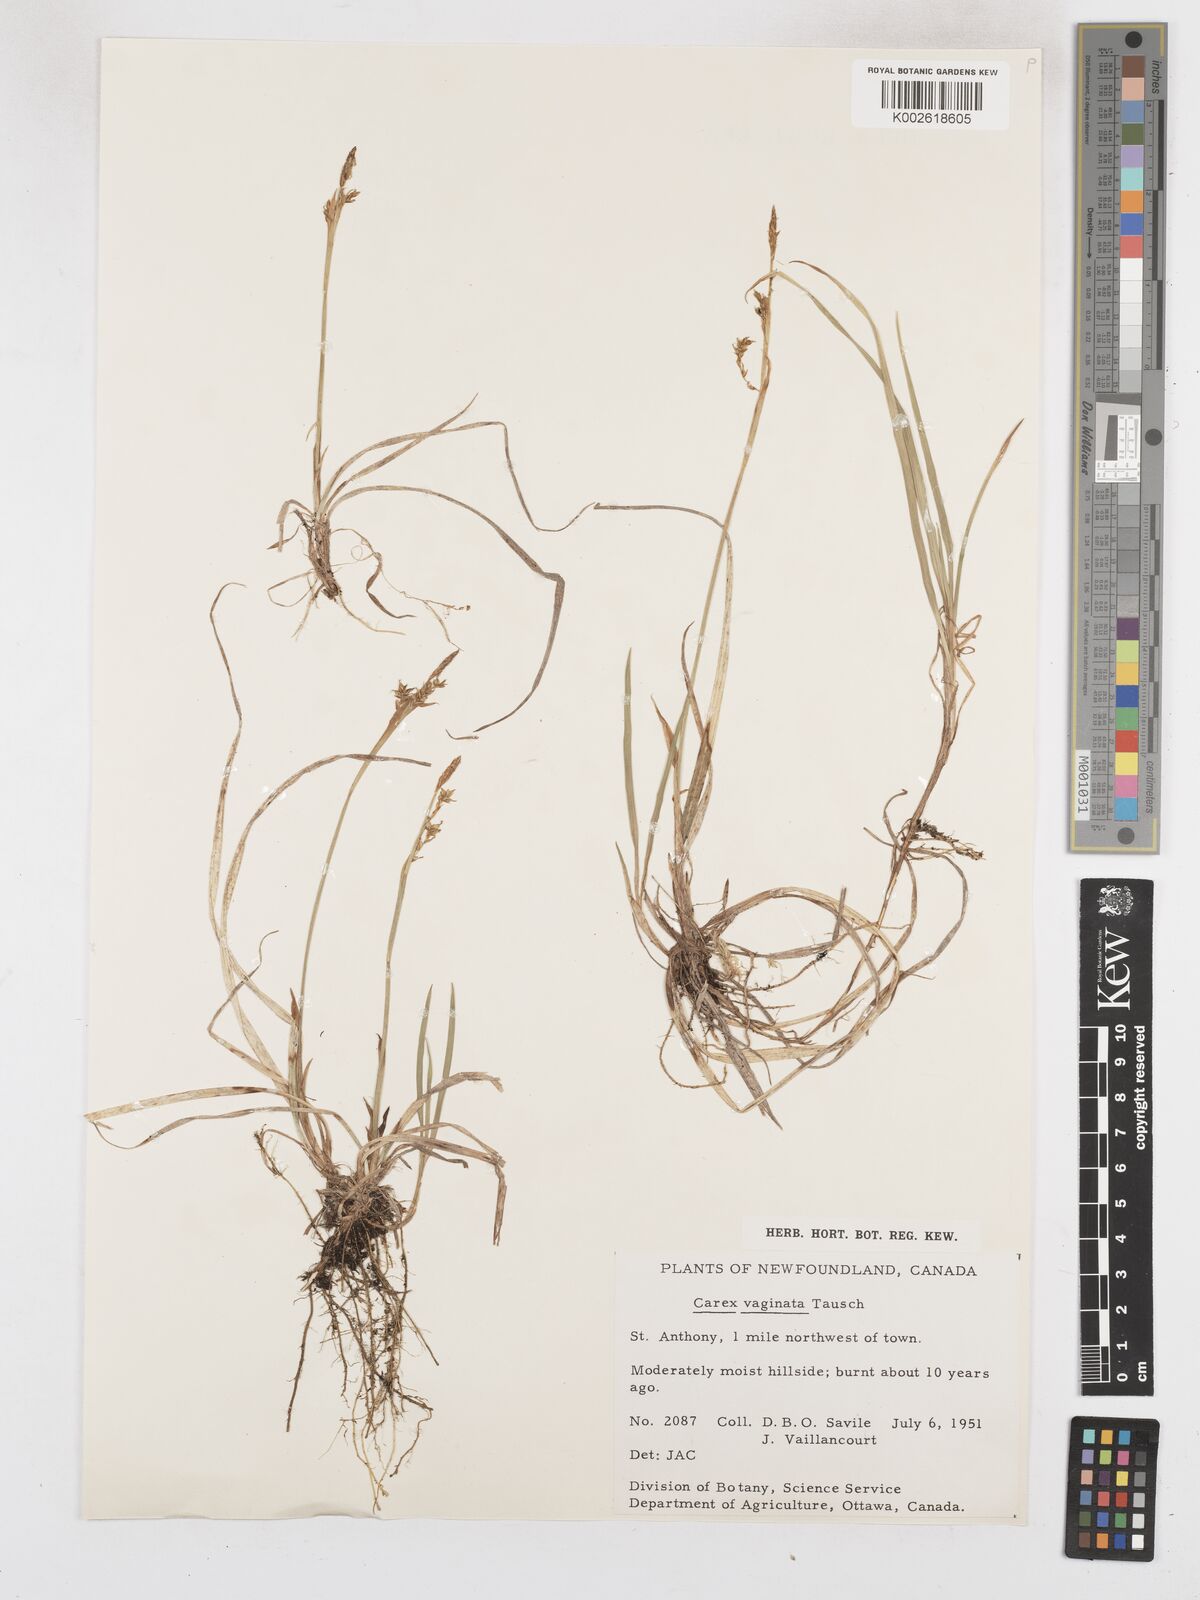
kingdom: Plantae
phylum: Tracheophyta
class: Liliopsida
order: Poales
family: Cyperaceae
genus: Carex
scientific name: Carex vaginata
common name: Sheathed sedge
